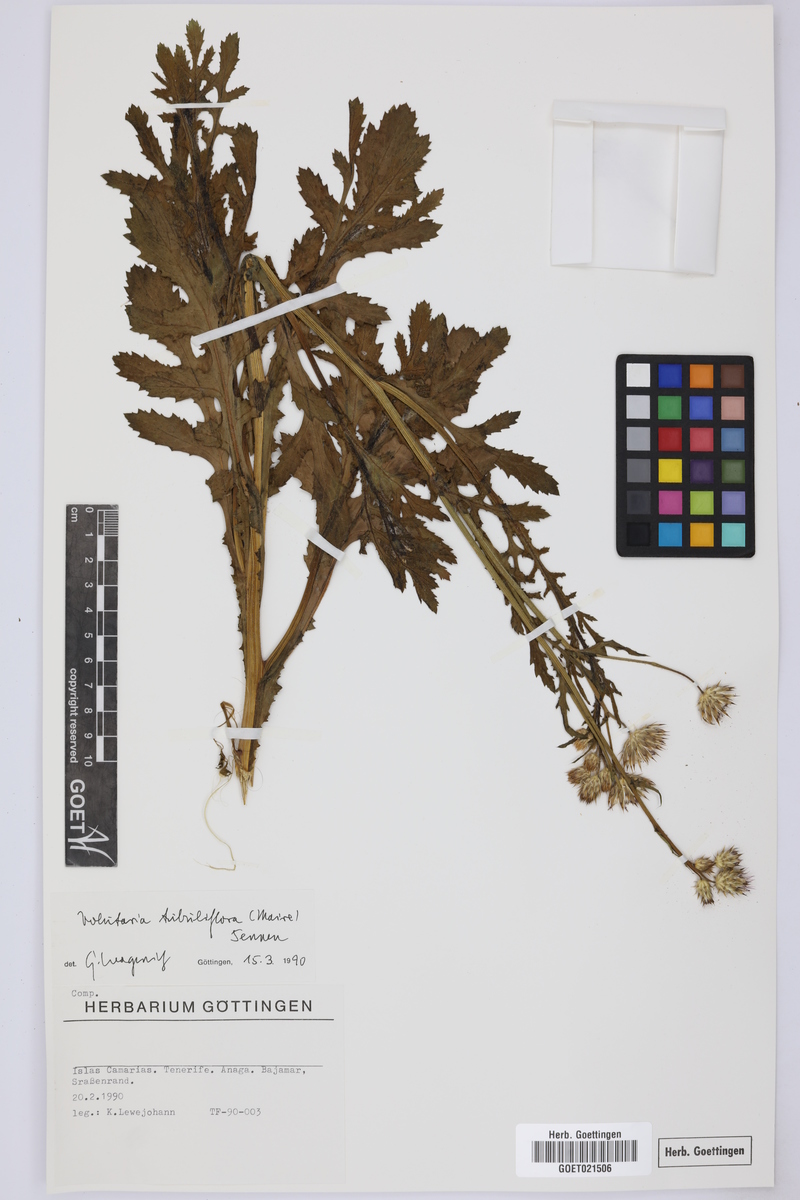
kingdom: Plantae
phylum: Tracheophyta
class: Magnoliopsida
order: Asterales
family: Asteraceae
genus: Volutaria
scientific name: Volutaria tubuliflora
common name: Desert knapweed
